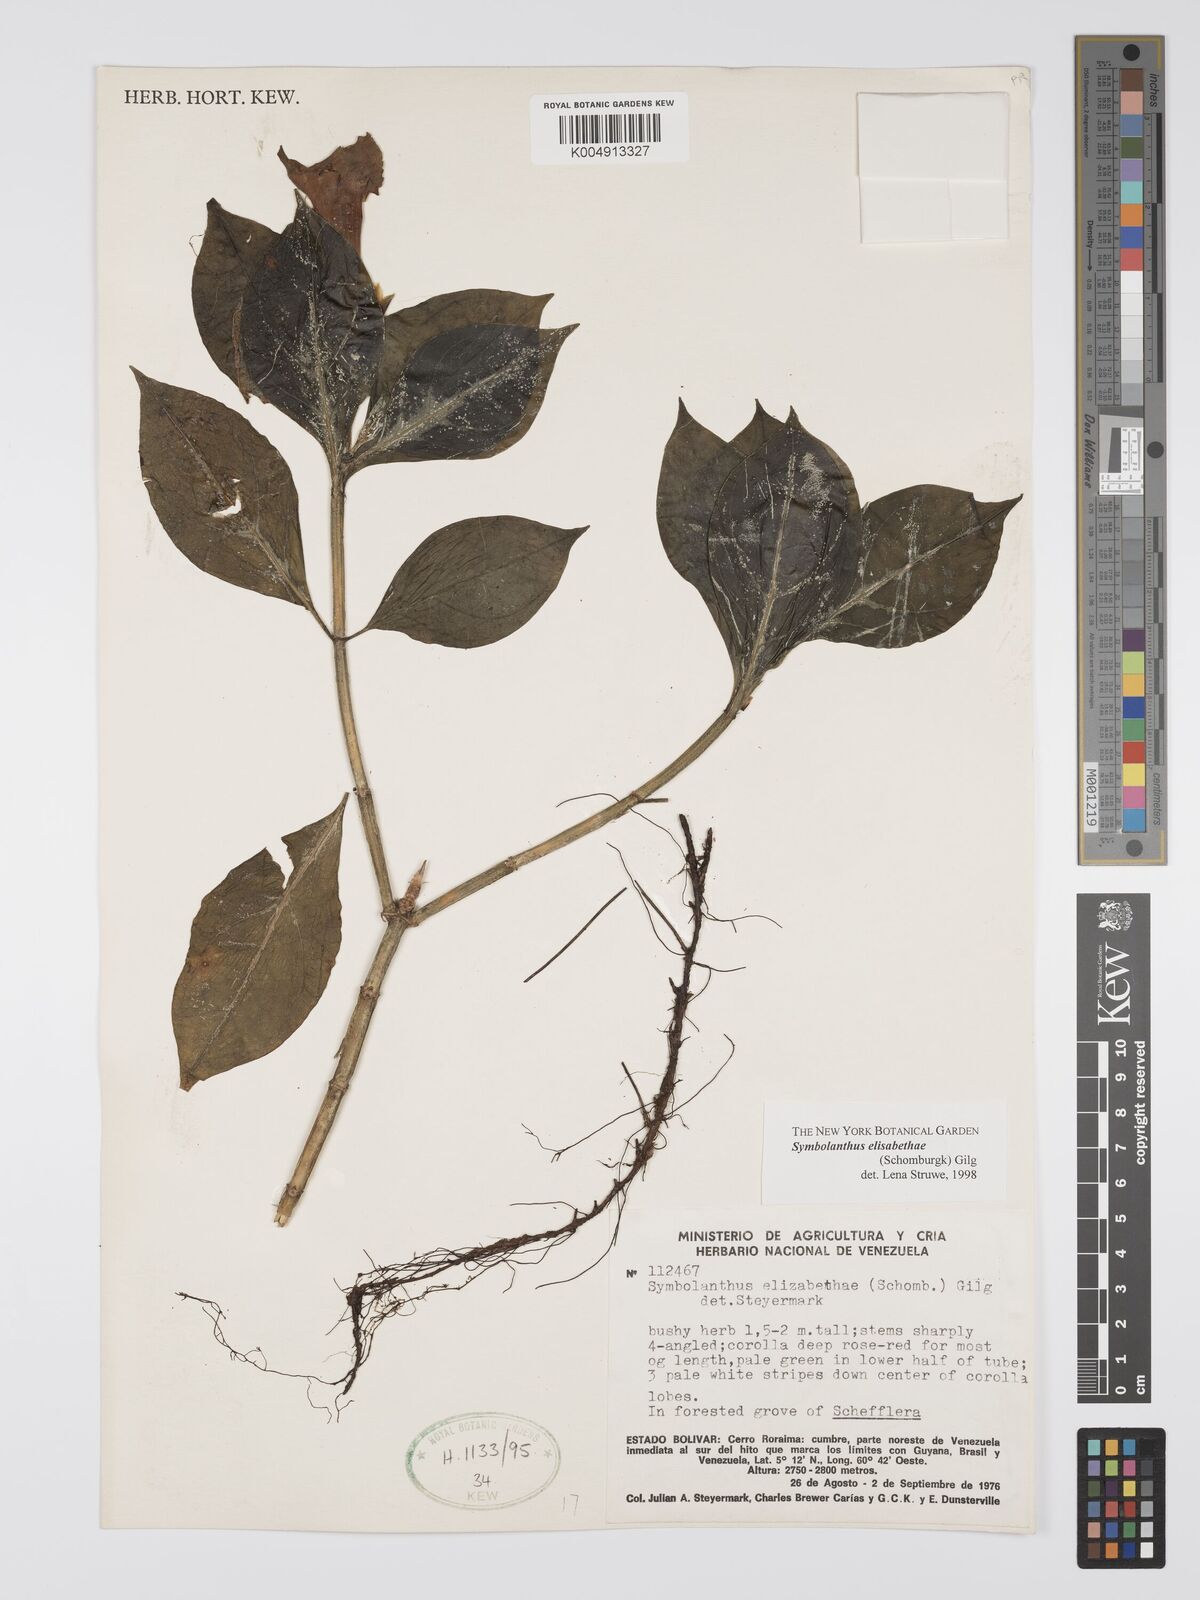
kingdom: Plantae
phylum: Tracheophyta
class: Magnoliopsida
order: Gentianales
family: Gentianaceae
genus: Symbolanthus
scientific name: Symbolanthus elisabethae
